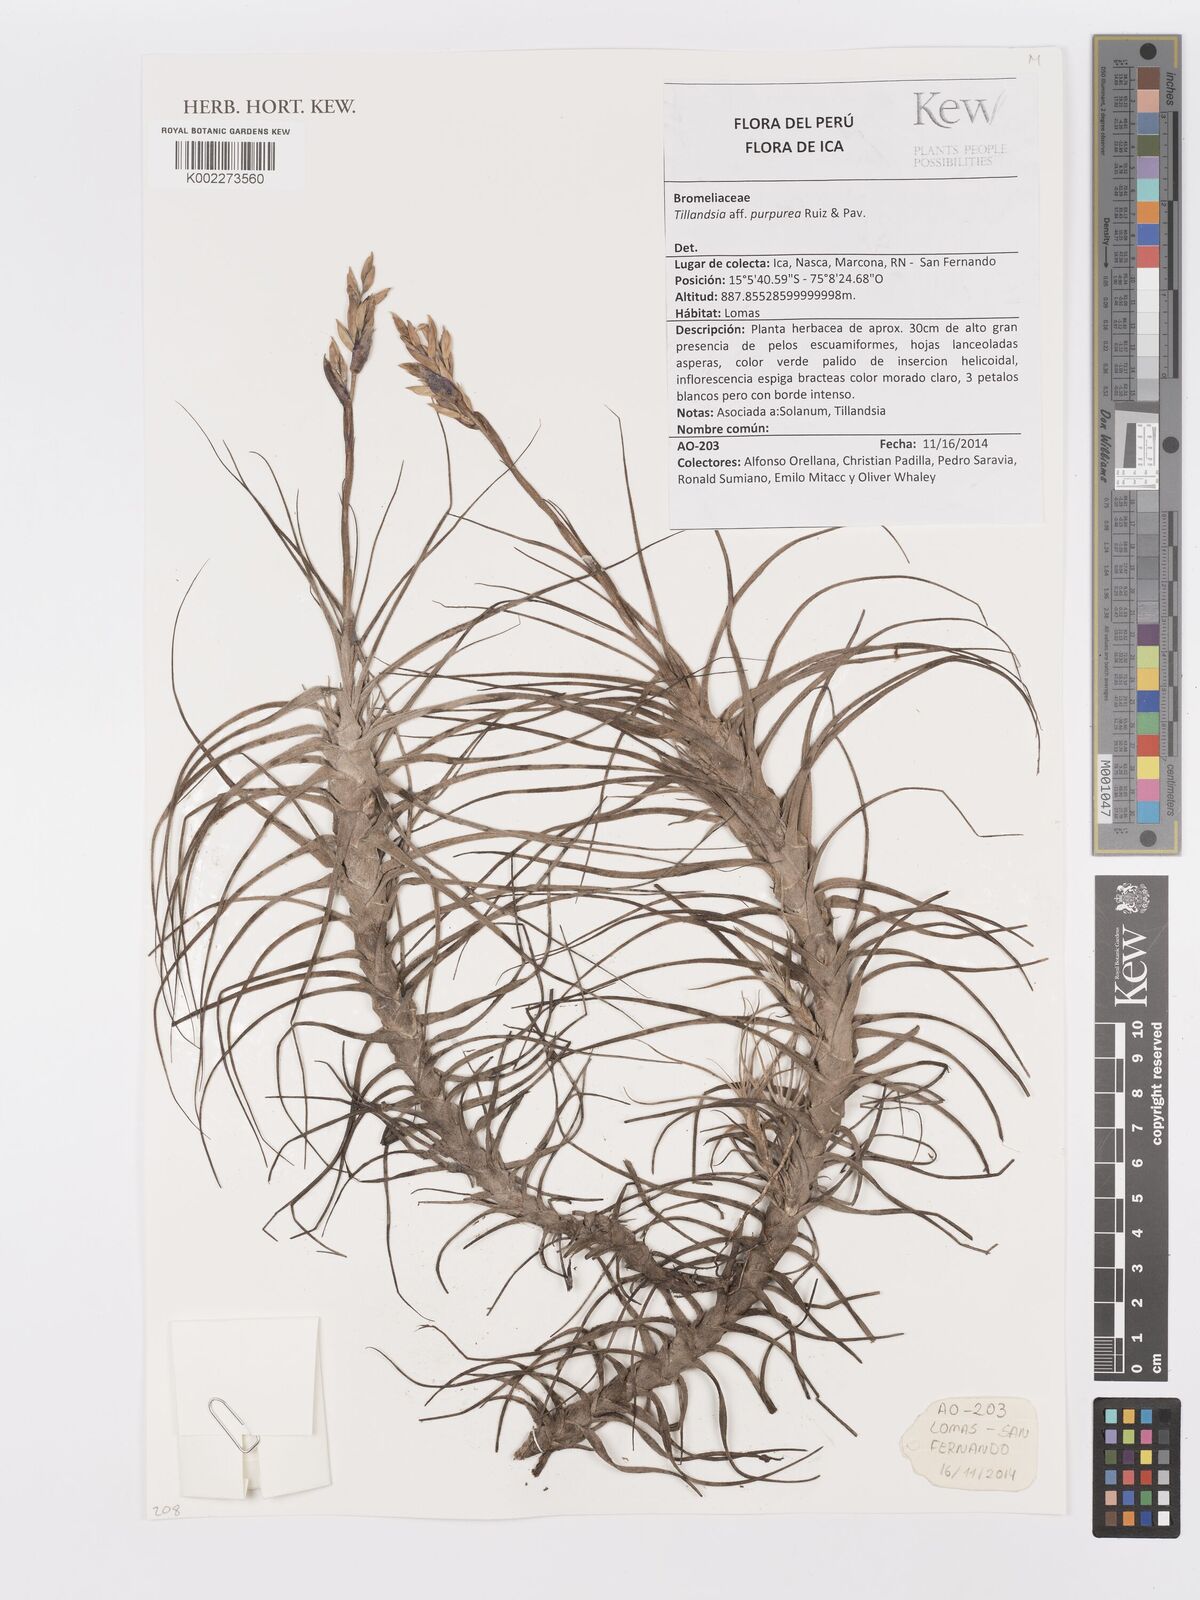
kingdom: Plantae
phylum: Tracheophyta
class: Liliopsida
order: Poales
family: Bromeliaceae
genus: Tillandsia
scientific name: Tillandsia purpurea
